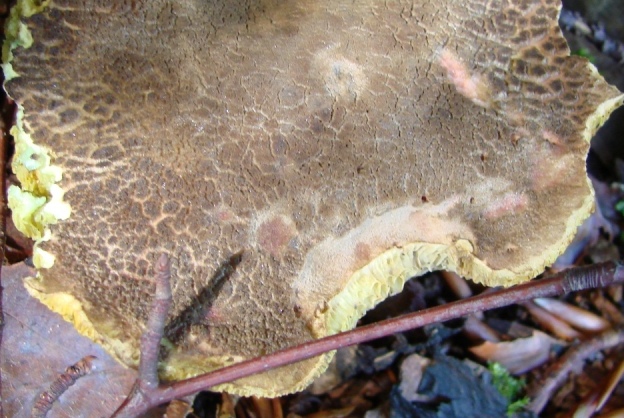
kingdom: Fungi
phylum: Basidiomycota
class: Agaricomycetes
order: Boletales
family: Boletaceae
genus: Xerocomellus
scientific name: Xerocomellus chrysenteron
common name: rødsprukken rørhat
